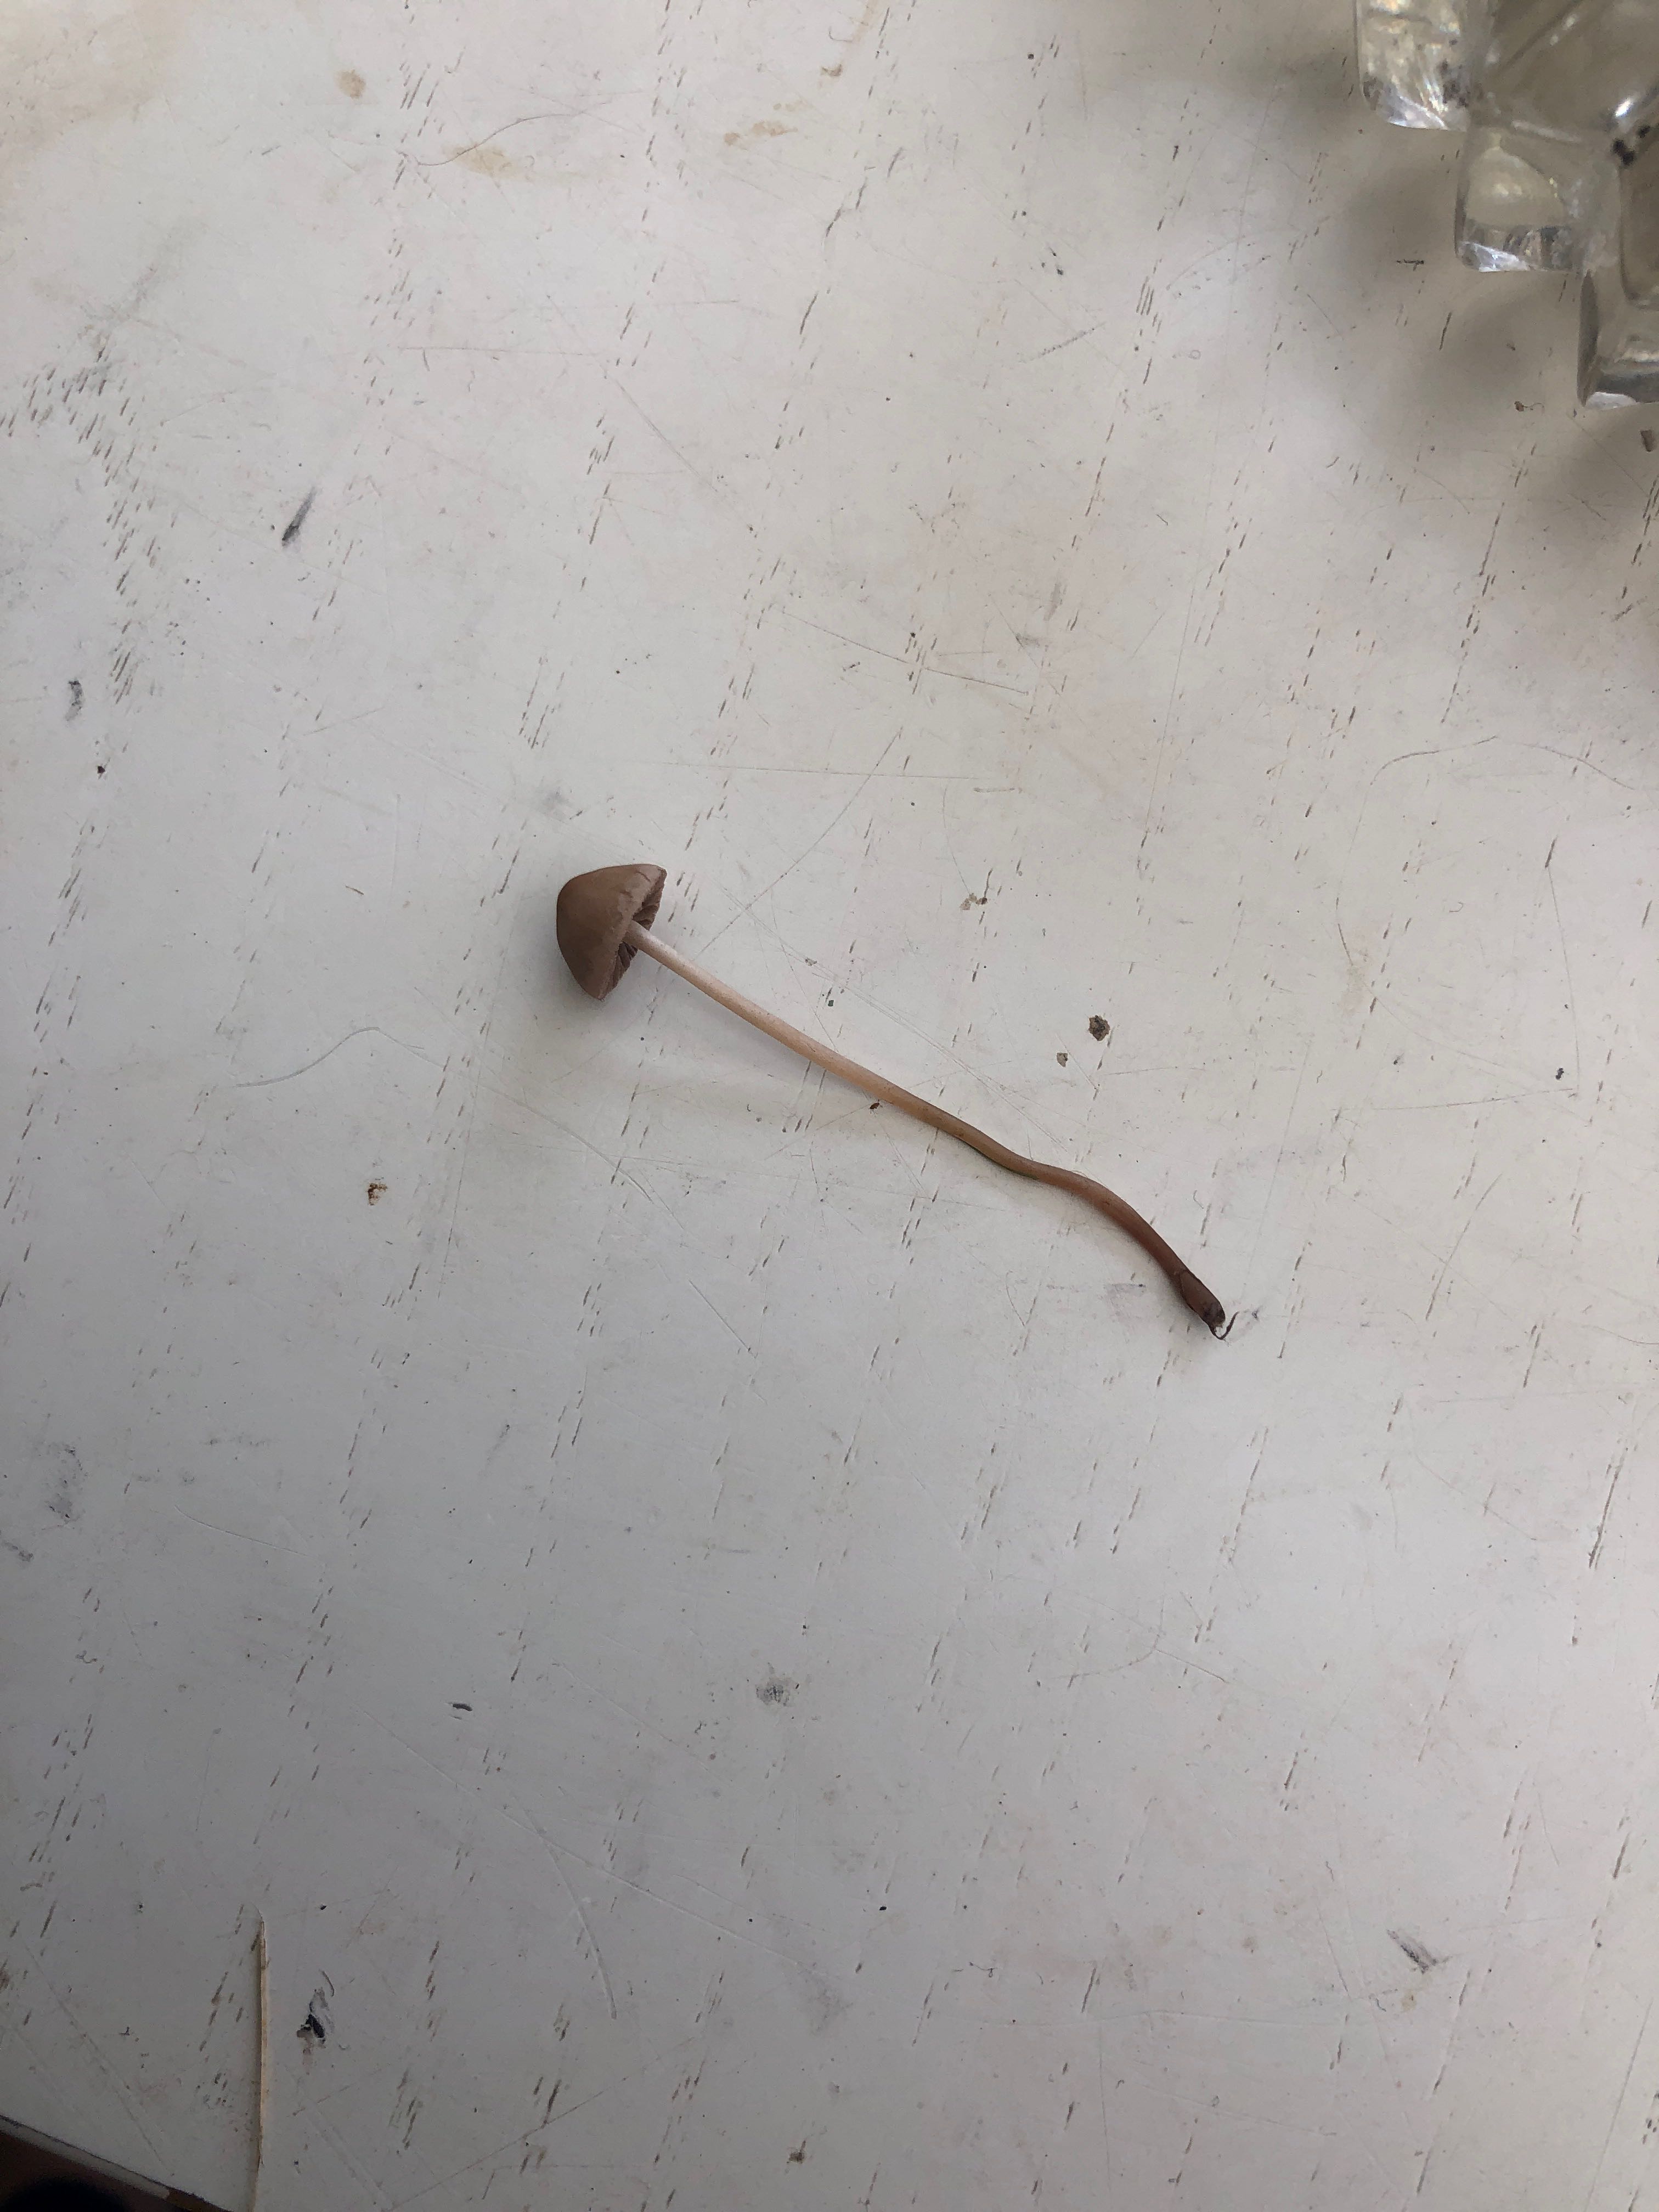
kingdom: Fungi
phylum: Basidiomycota
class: Agaricomycetes
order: Agaricales
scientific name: Agaricales
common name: champignonordenen
